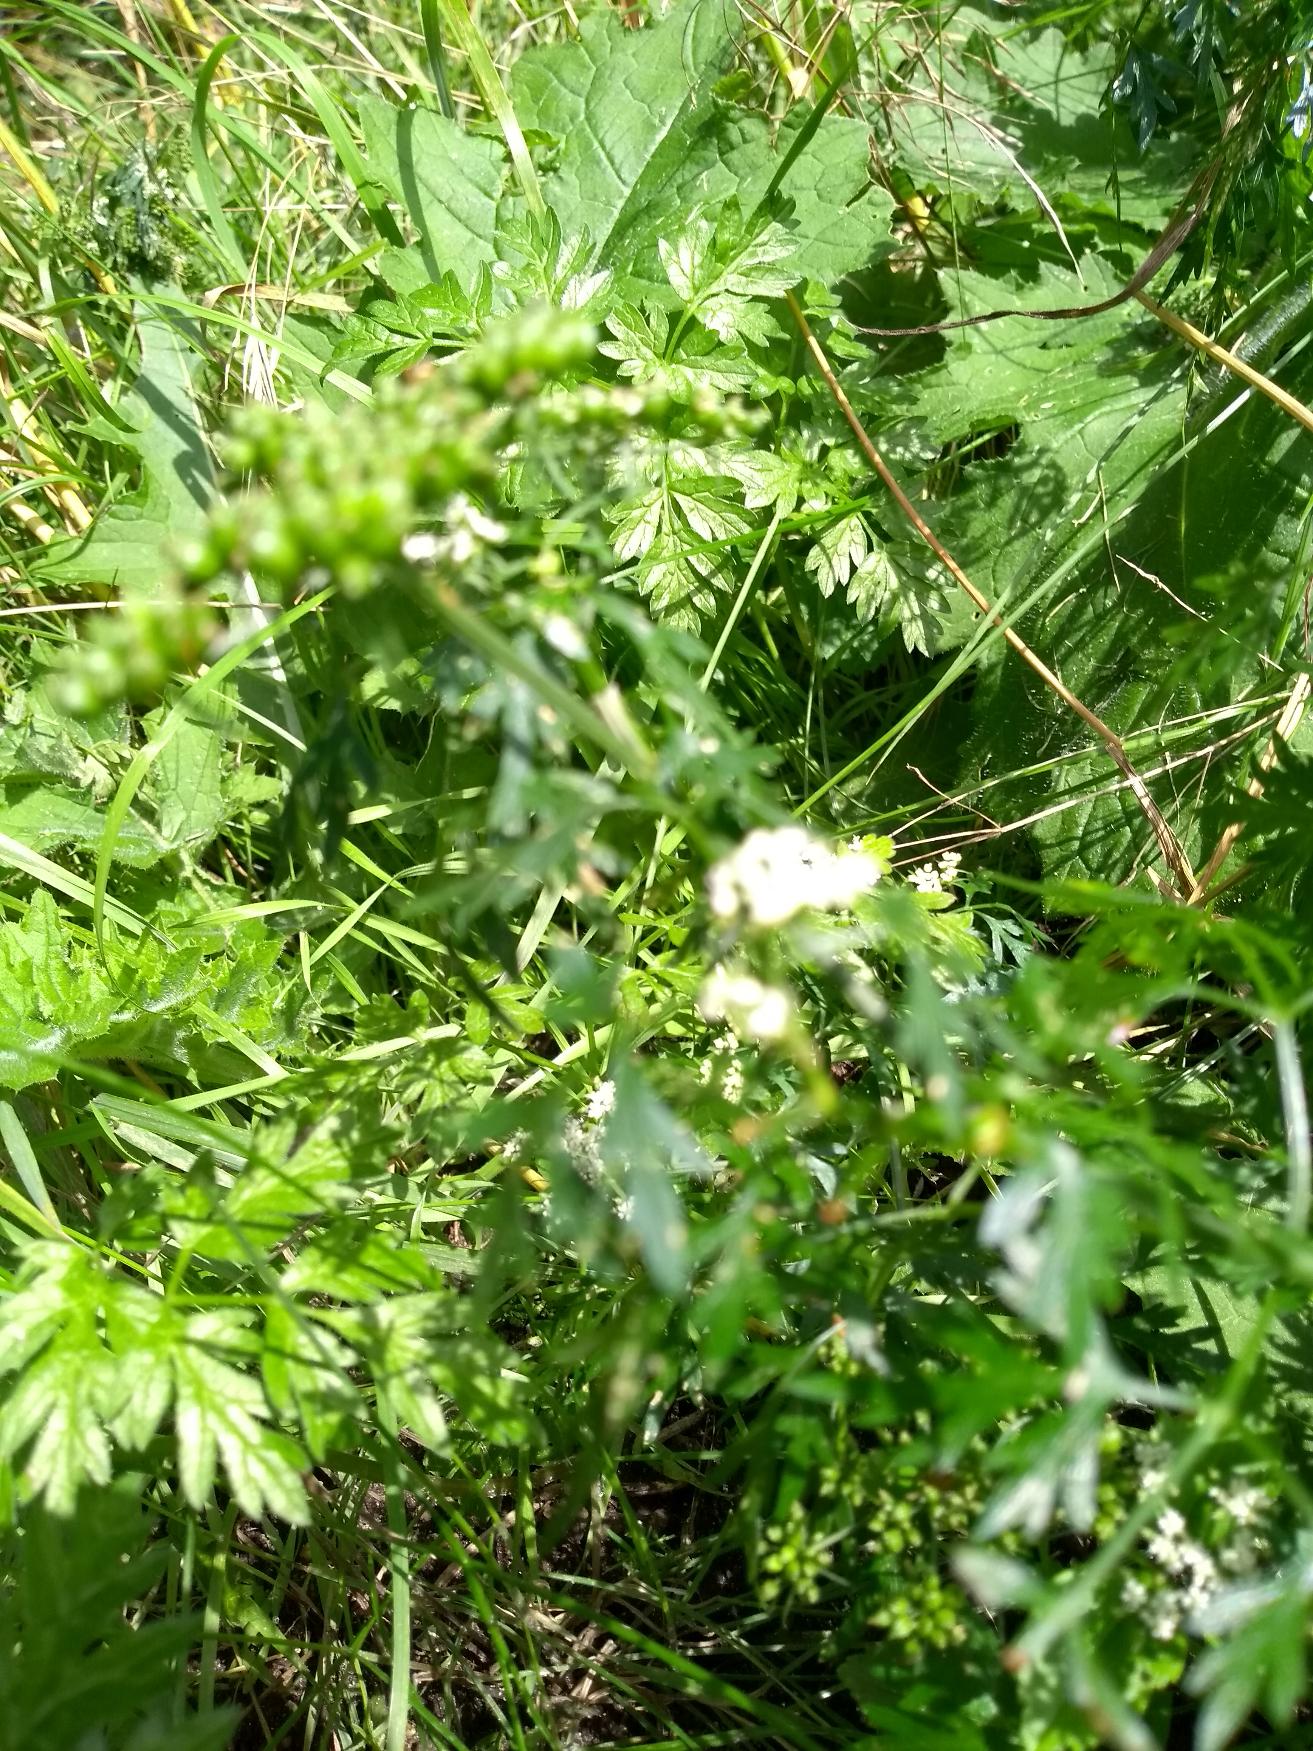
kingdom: Plantae
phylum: Tracheophyta
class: Magnoliopsida
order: Apiales
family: Apiaceae
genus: Aethusa
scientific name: Aethusa cynapium
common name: Hundepersille
